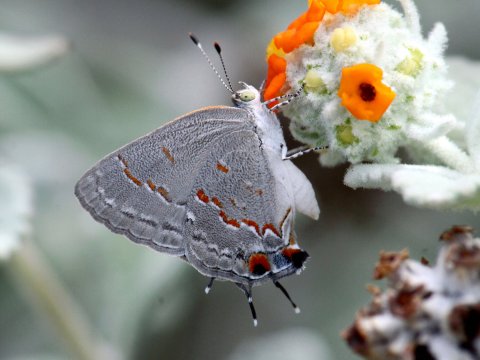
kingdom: Animalia
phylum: Arthropoda
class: Insecta
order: Lepidoptera
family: Lycaenidae
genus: Ministrymon
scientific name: Ministrymon leda
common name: Leda Ministreak
